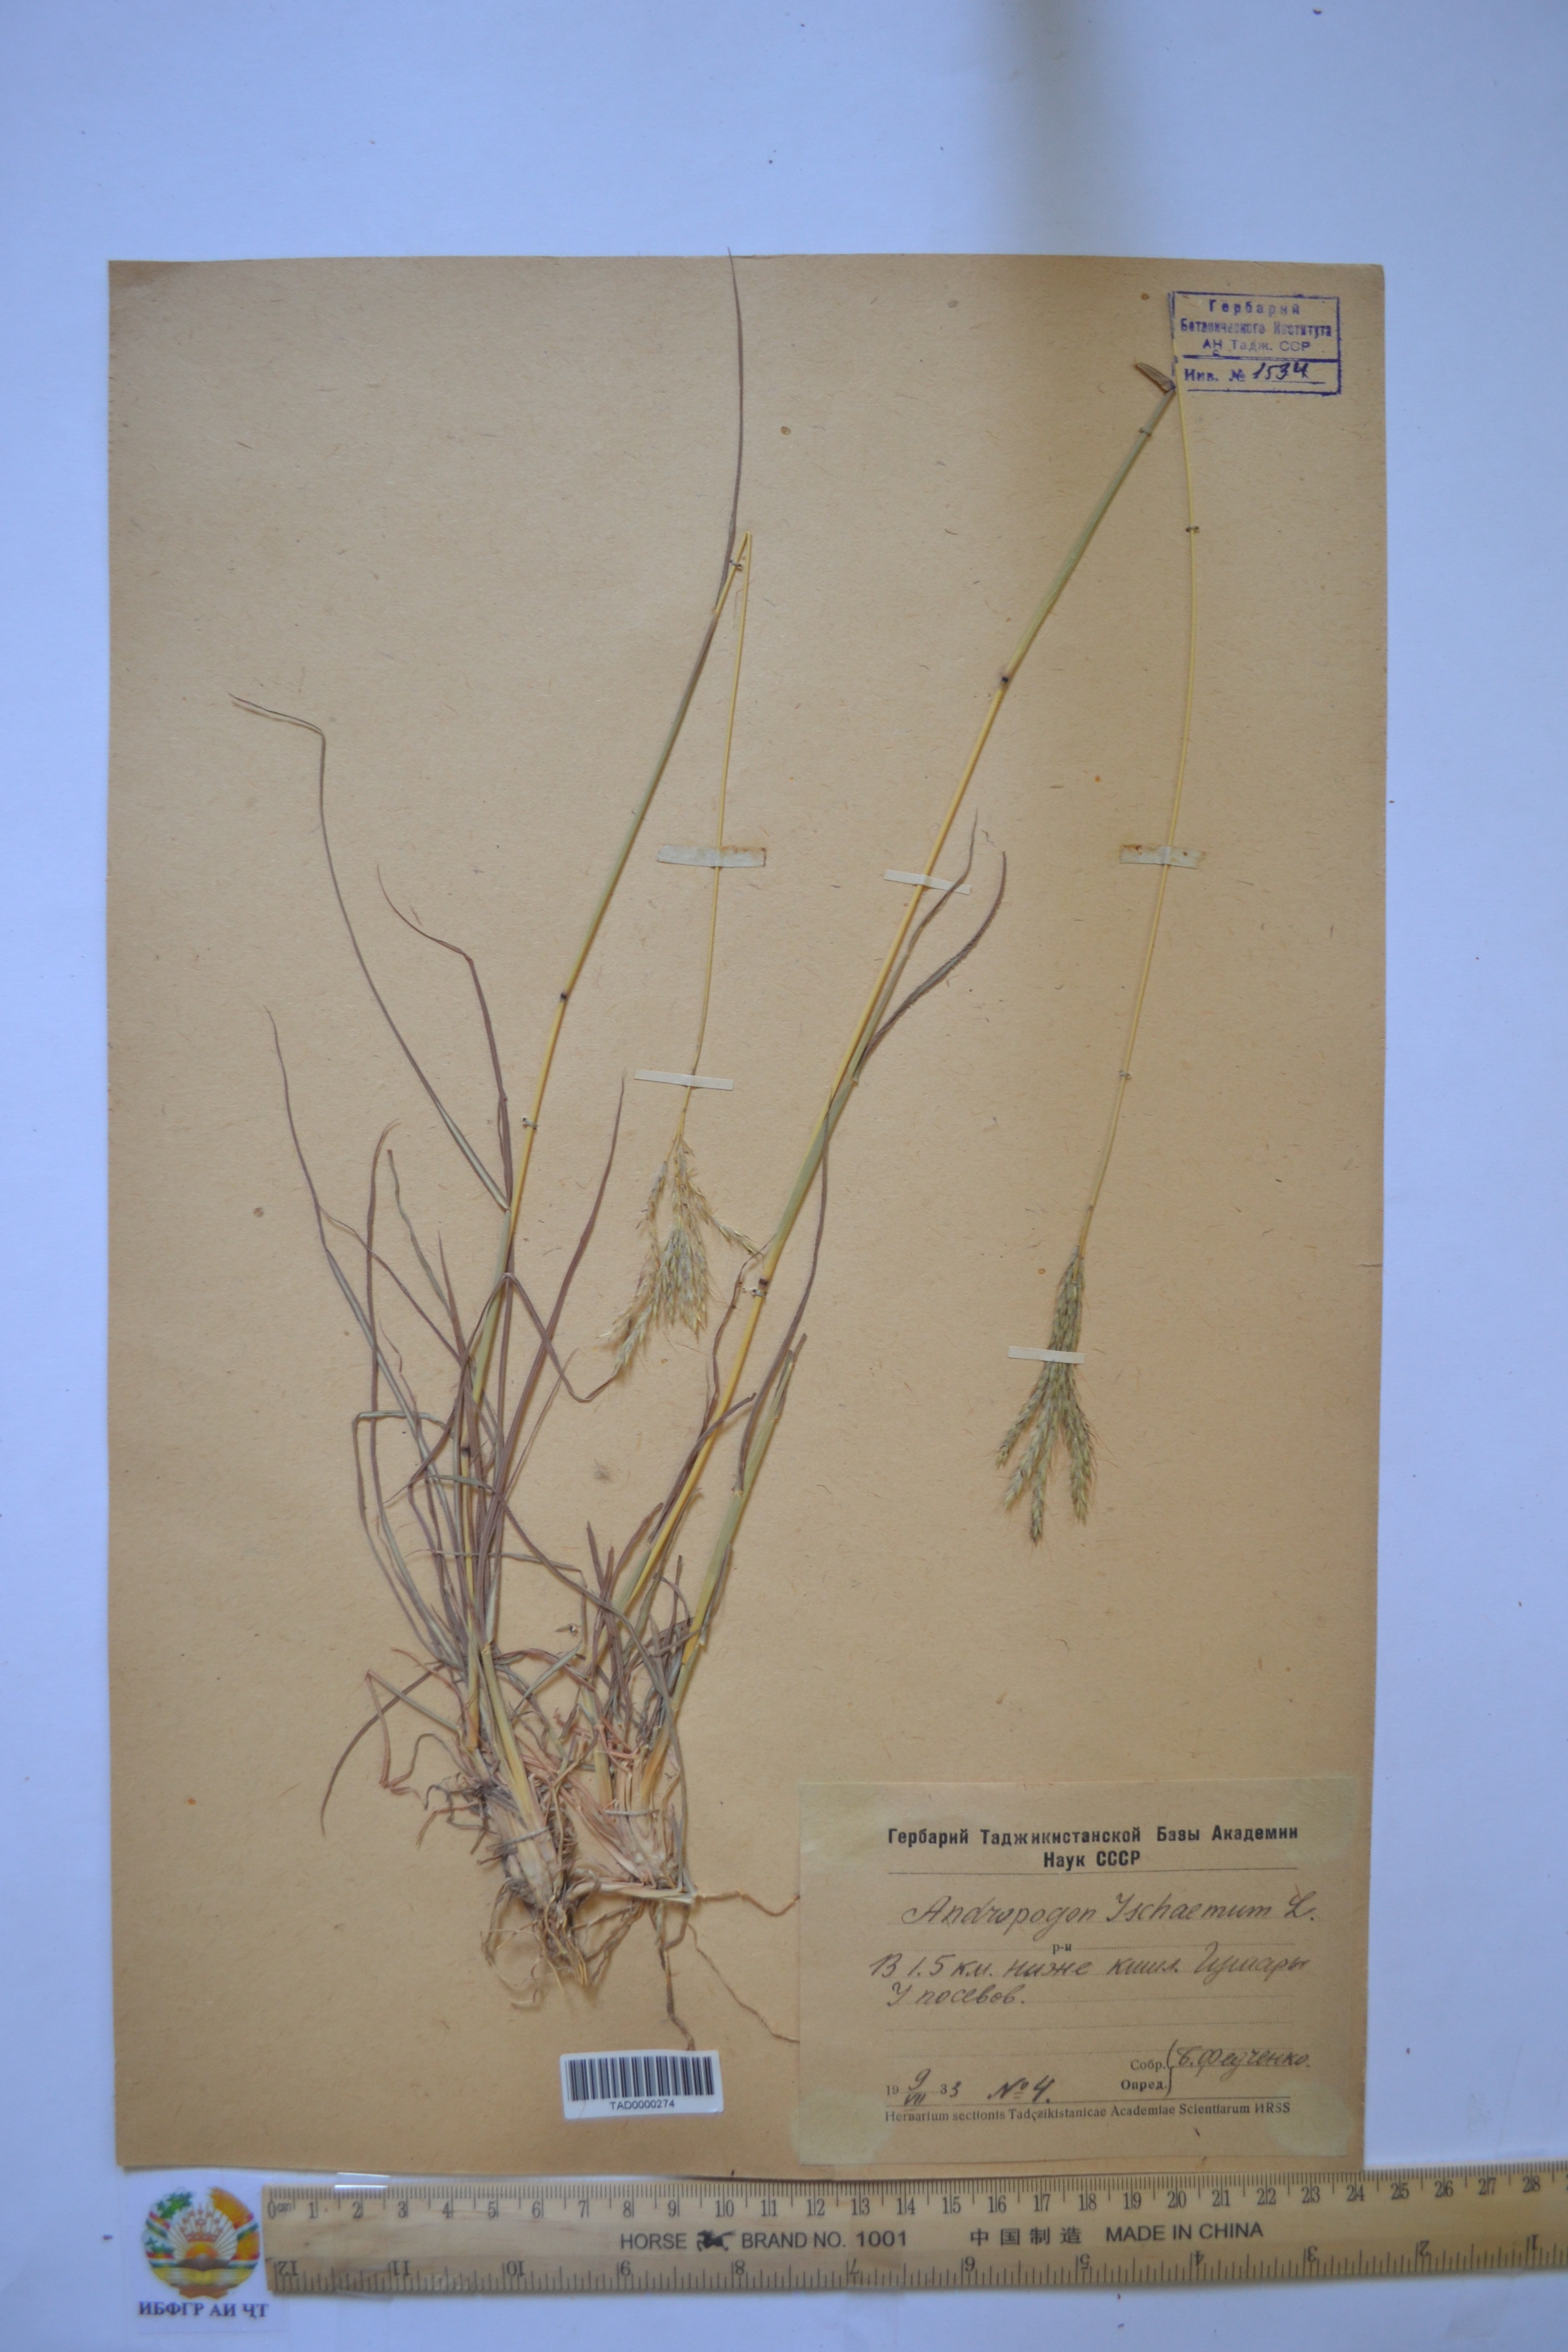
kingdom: Plantae
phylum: Tracheophyta
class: Liliopsida
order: Poales
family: Poaceae
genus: Bothriochloa
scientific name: Bothriochloa ischaemum
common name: Yellow bluestem
